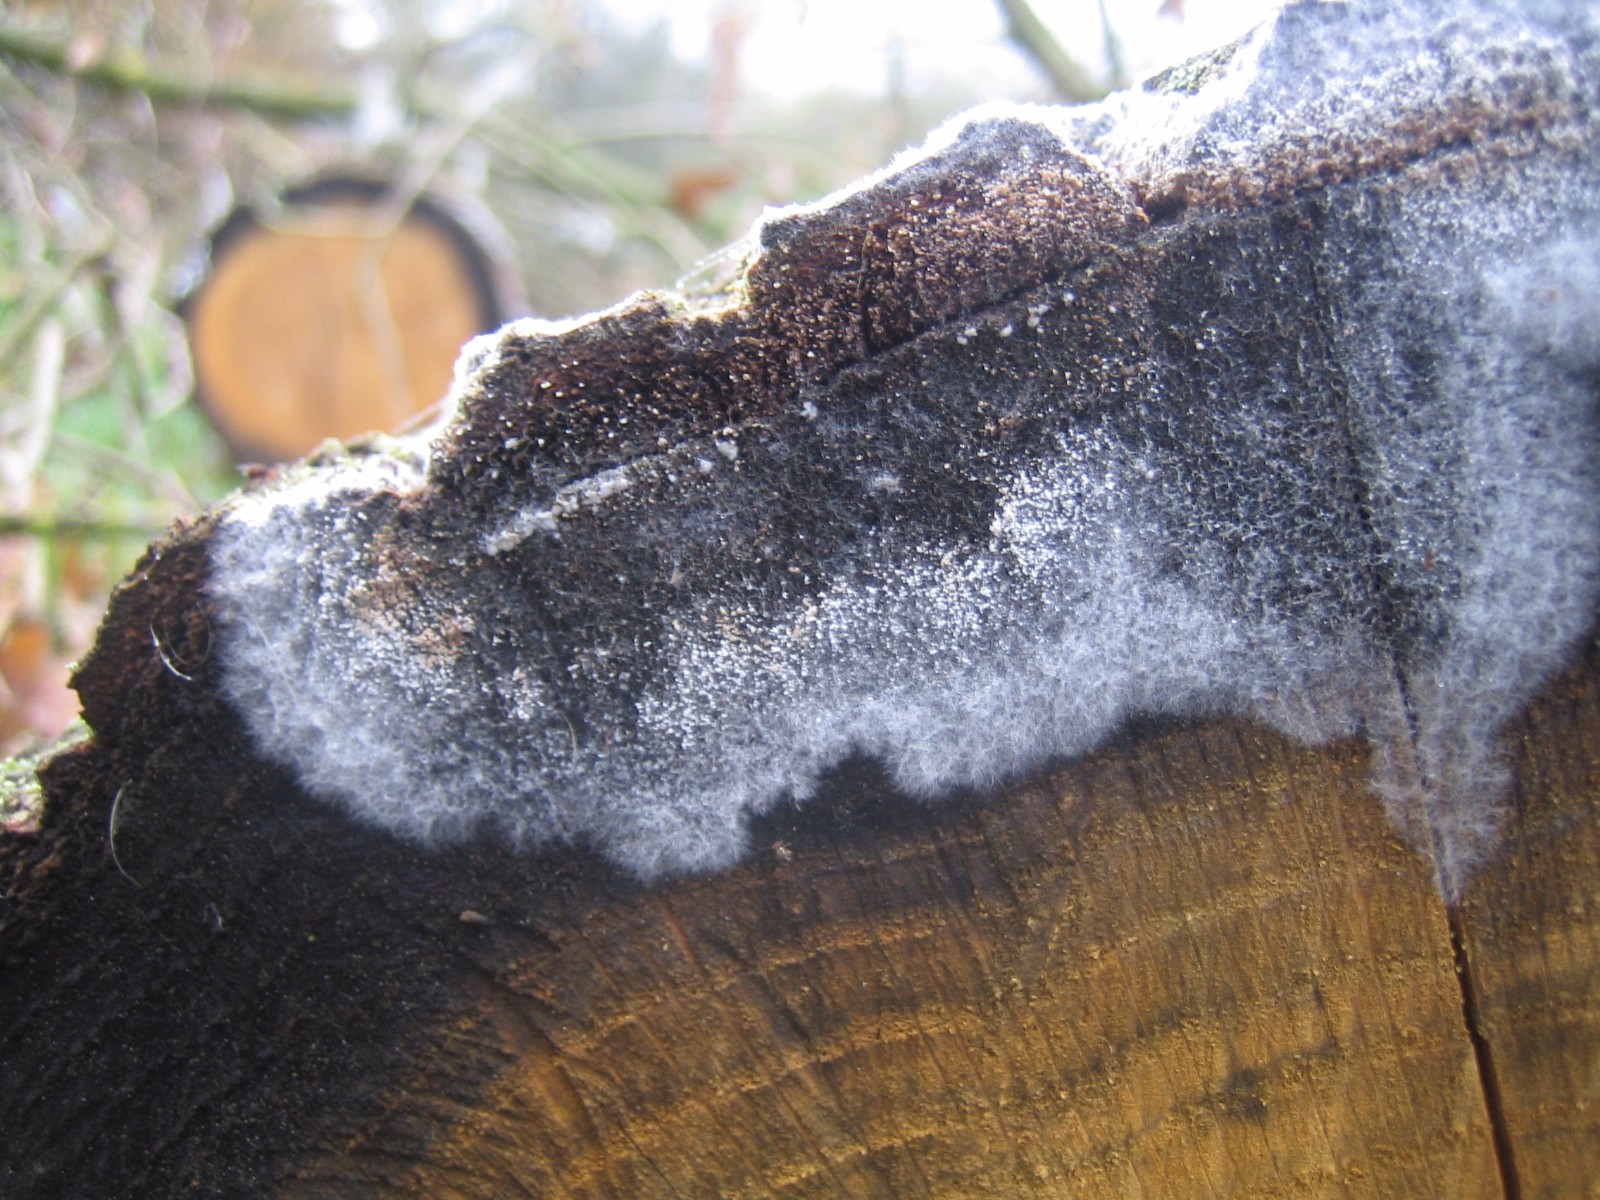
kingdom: Fungi
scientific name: Fungi
